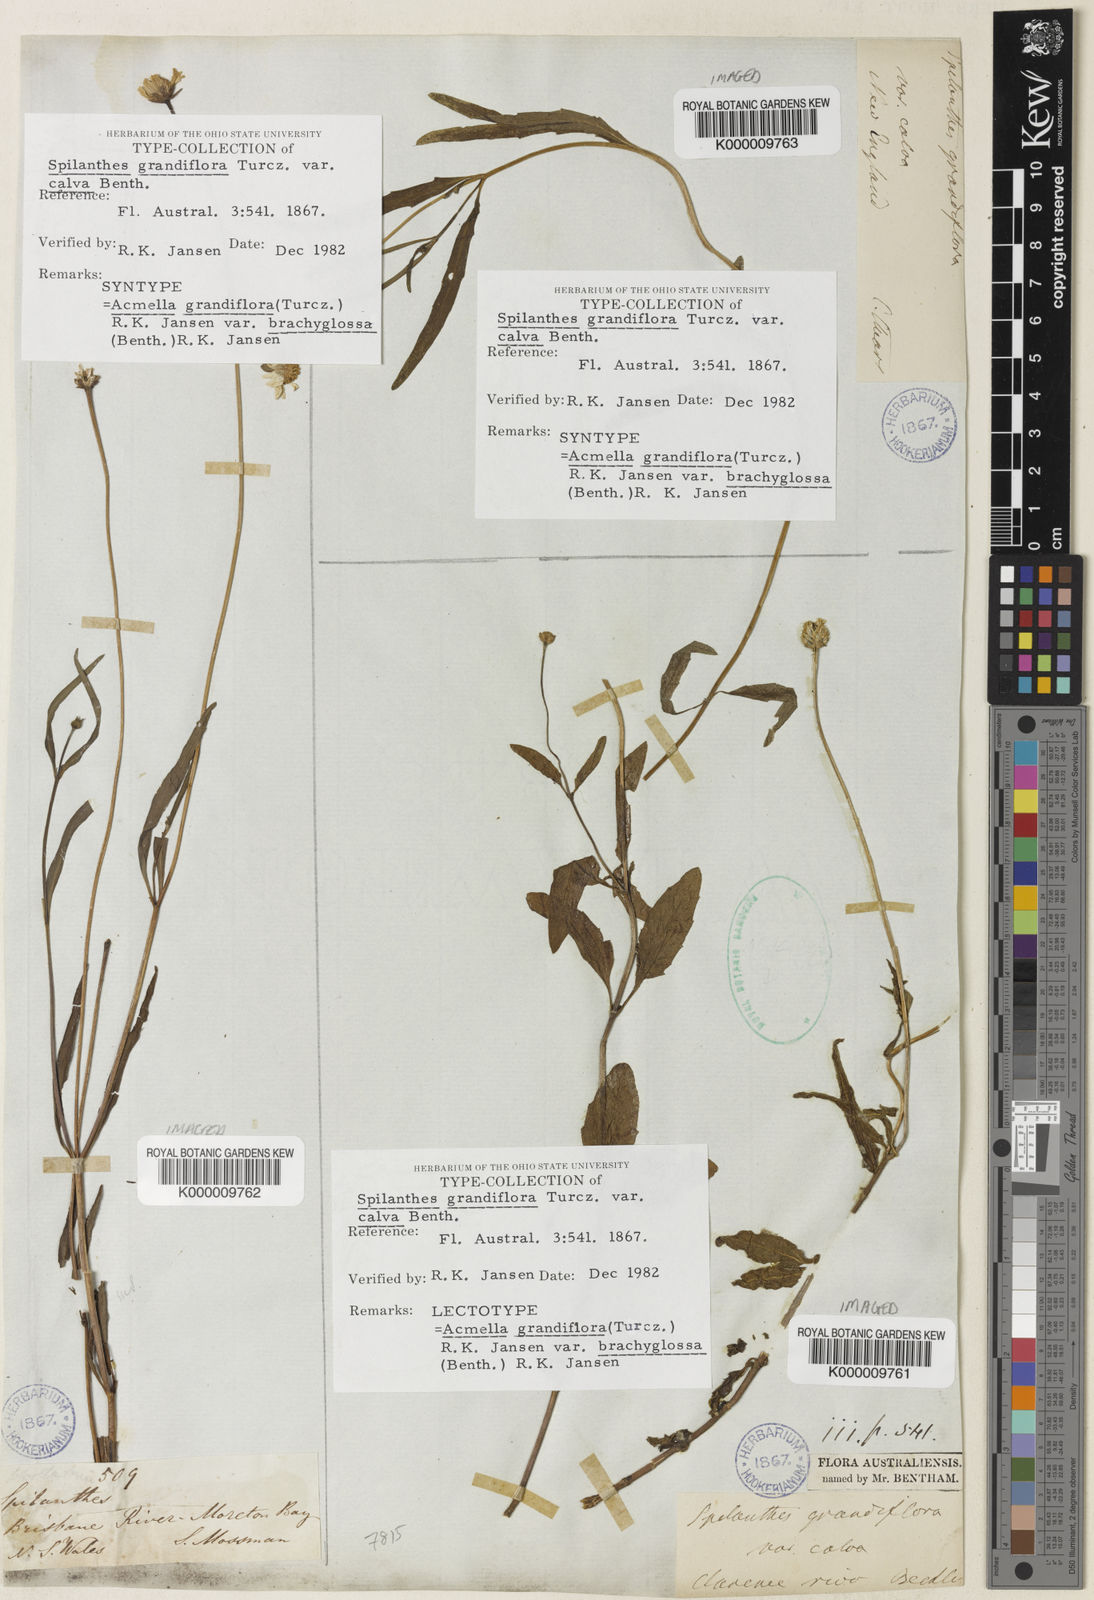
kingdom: Plantae
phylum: Tracheophyta
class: Magnoliopsida
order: Asterales
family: Asteraceae
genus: Acmella
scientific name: Acmella grandiflora
